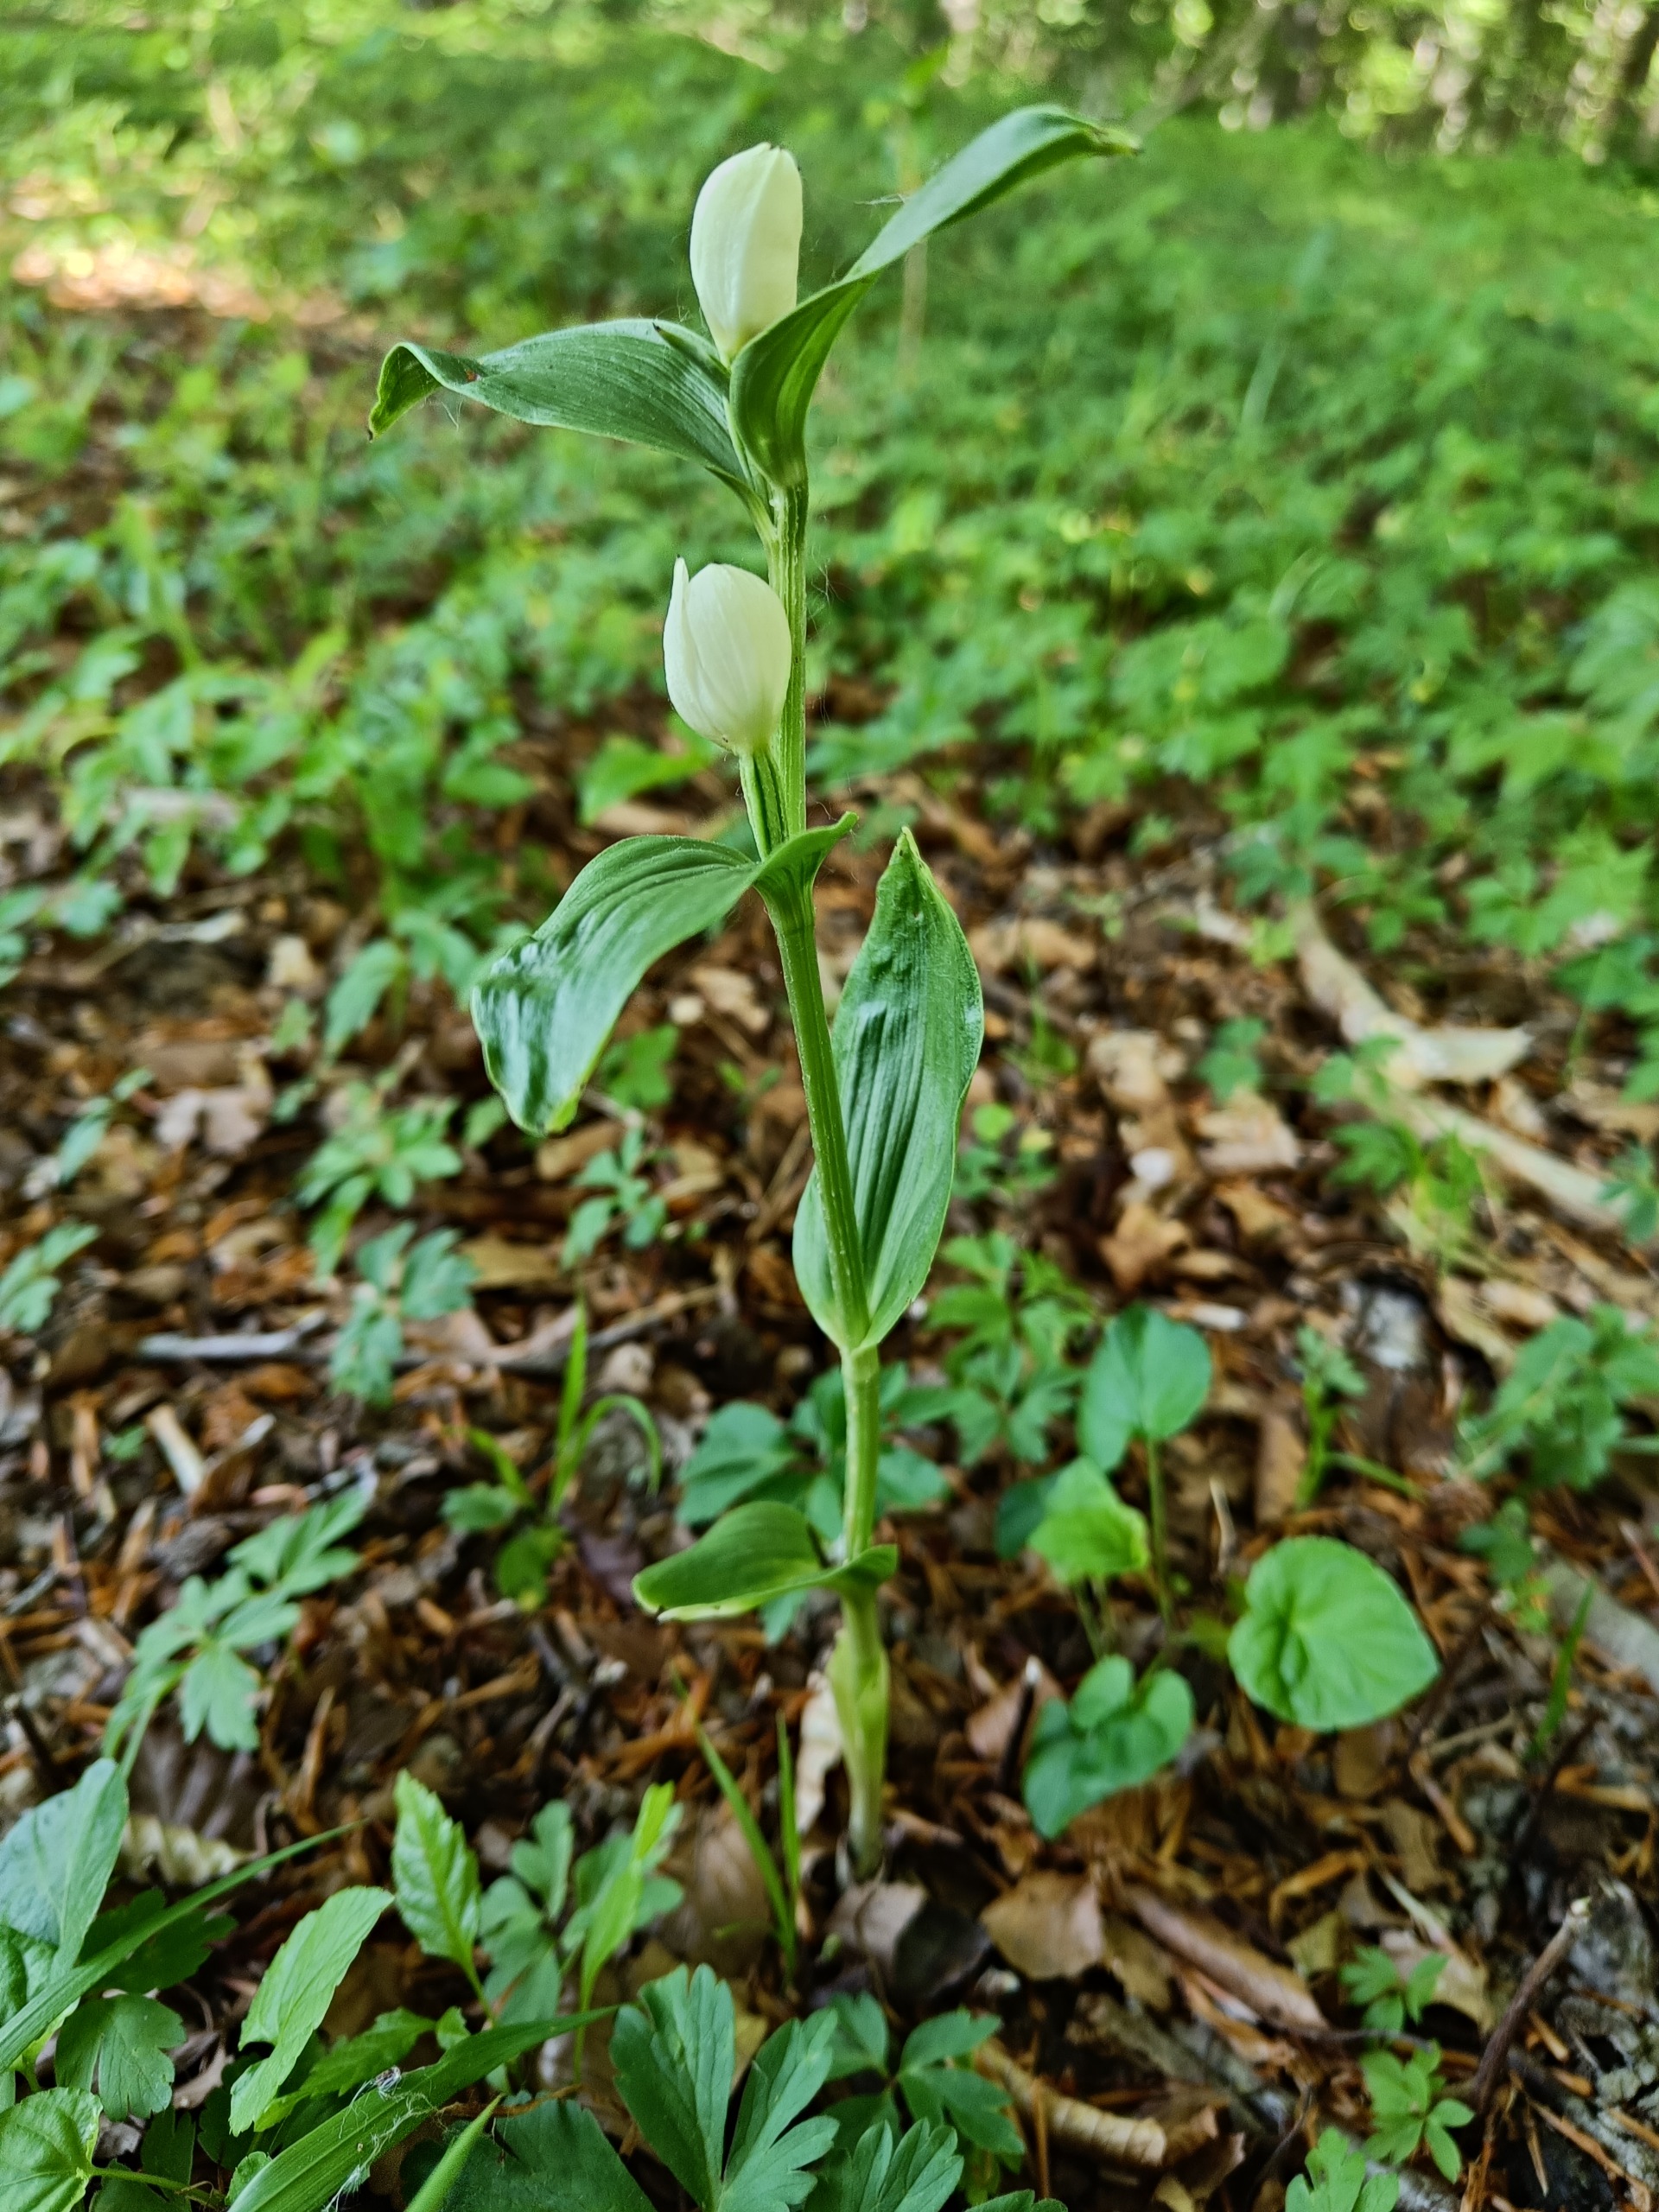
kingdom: Plantae
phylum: Tracheophyta
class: Liliopsida
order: Asparagales
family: Orchidaceae
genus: Cephalanthera
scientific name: Cephalanthera damasonium
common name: Hvidgul skovlilje
